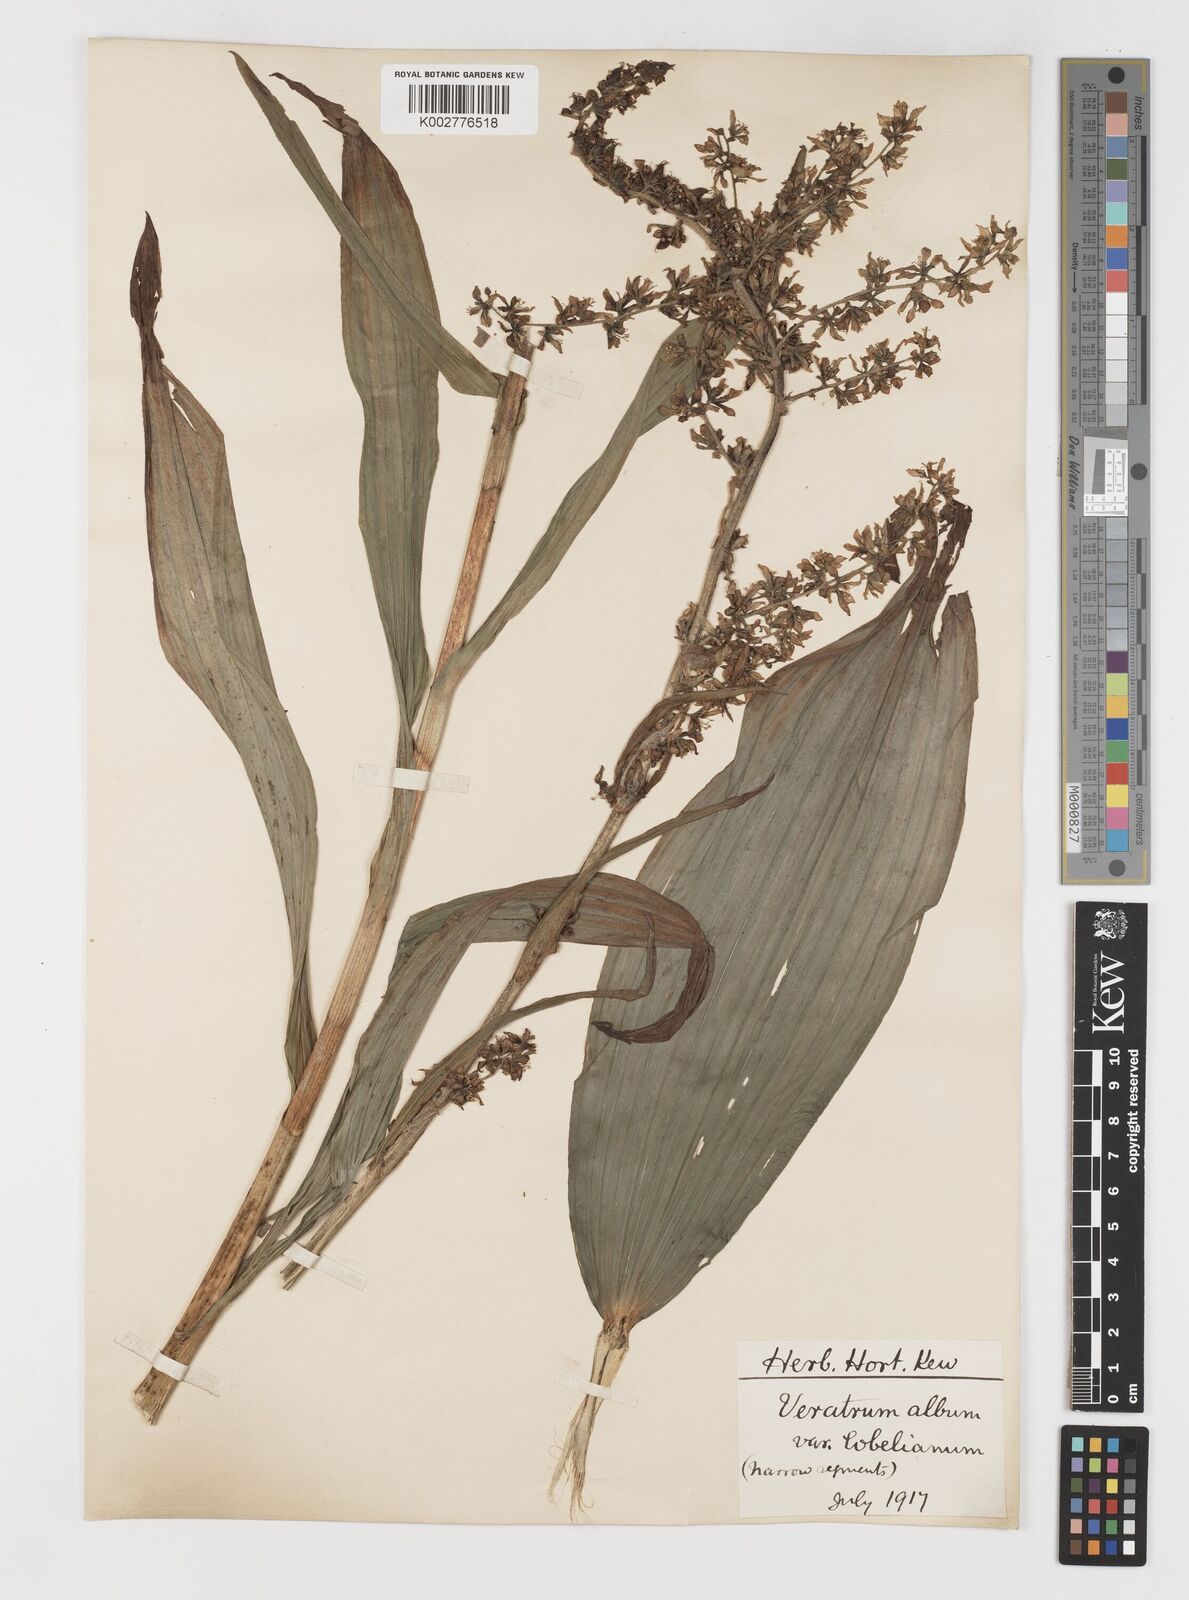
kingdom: Plantae
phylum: Tracheophyta
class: Liliopsida
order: Liliales
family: Melanthiaceae
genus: Veratrum
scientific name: Veratrum album
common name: White veratrum
